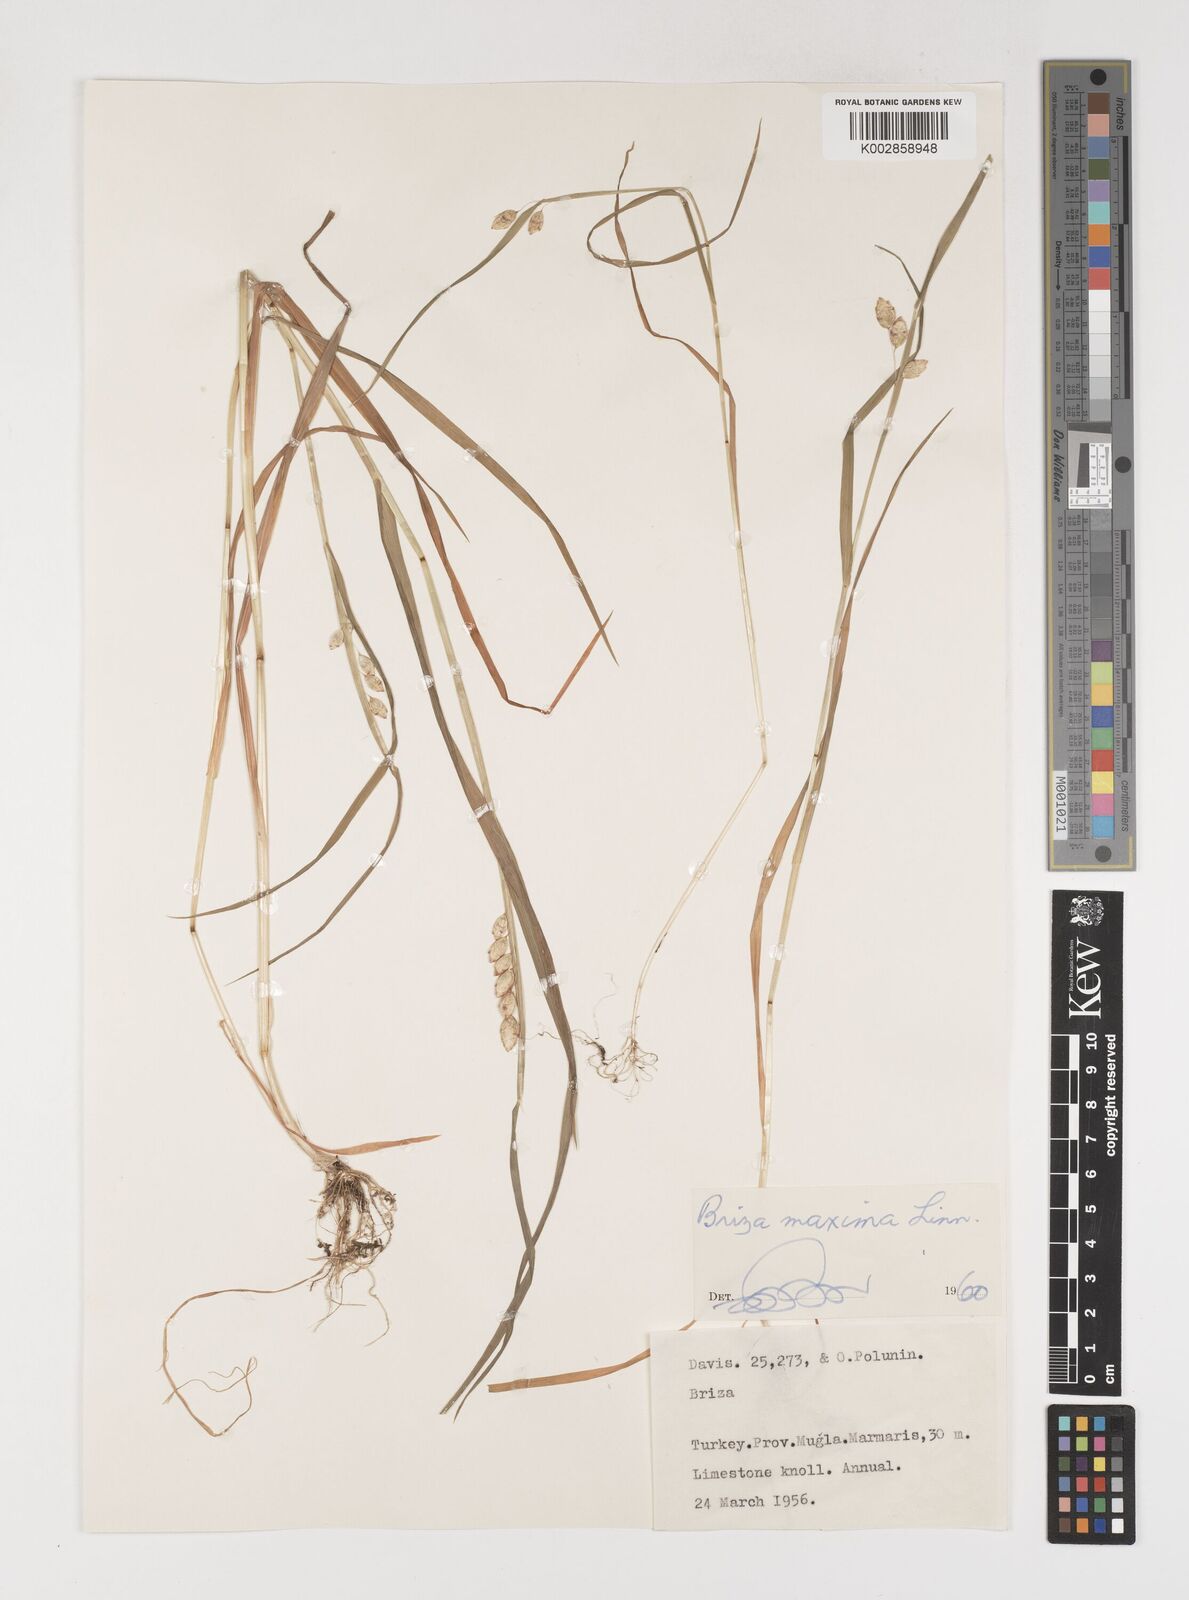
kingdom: Plantae
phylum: Tracheophyta
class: Liliopsida
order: Poales
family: Poaceae
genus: Briza
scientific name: Briza maxima
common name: Big quakinggrass
